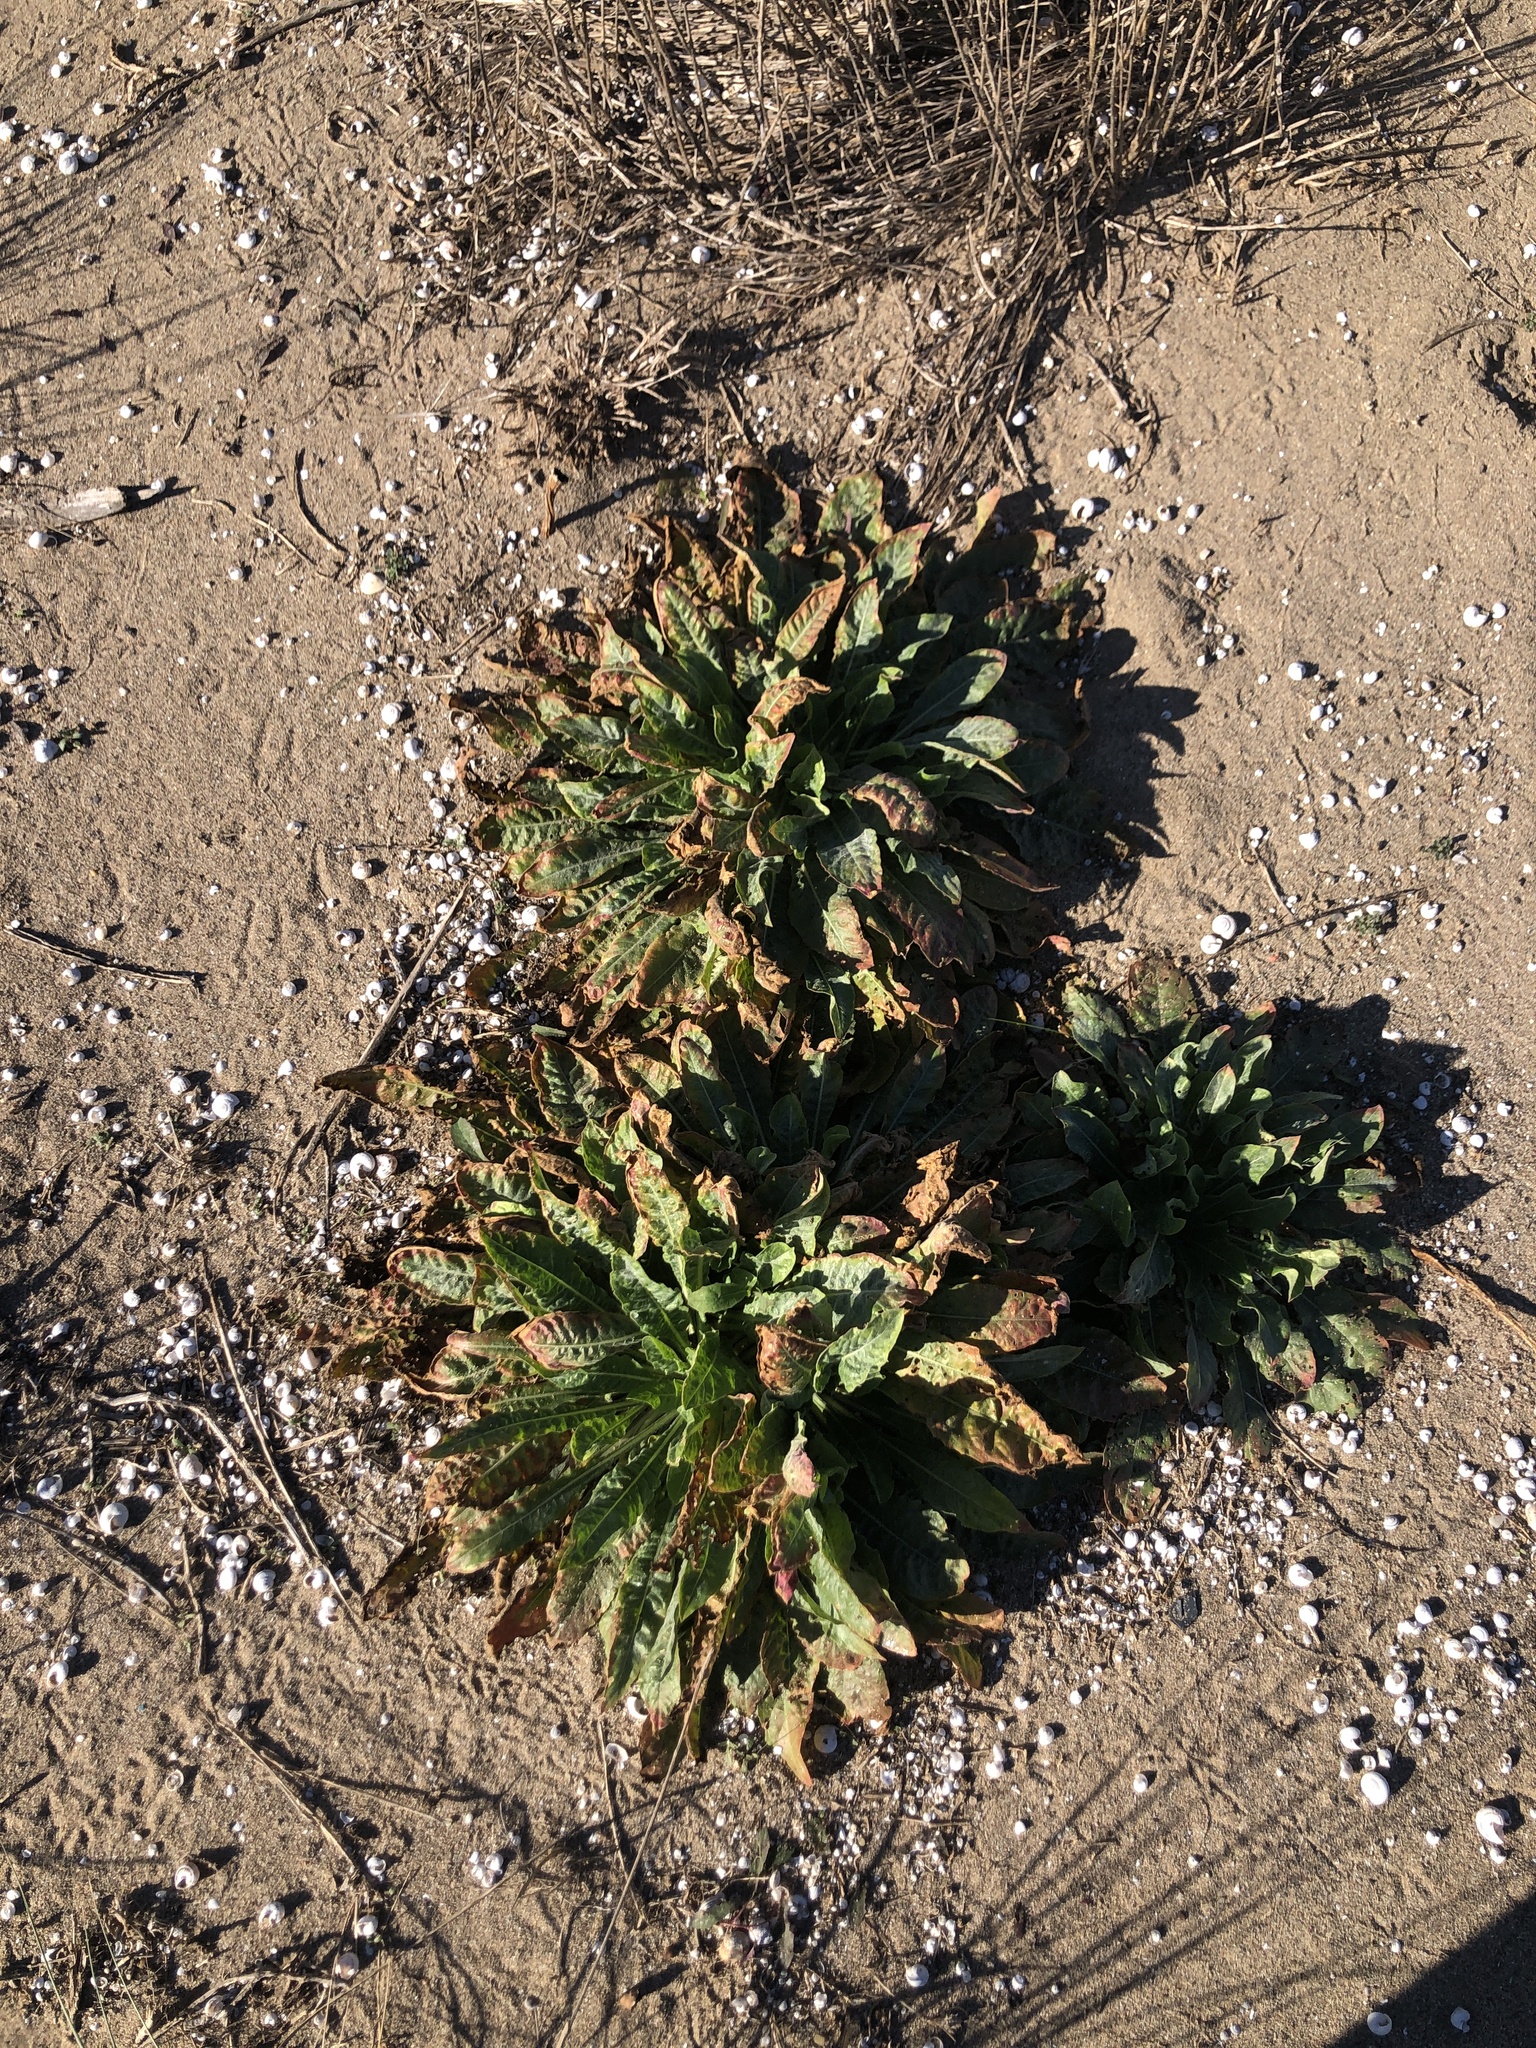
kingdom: Plantae
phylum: Tracheophyta
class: Magnoliopsida
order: Myrtales
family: Onagraceae
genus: Oenothera
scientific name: Oenothera glazioviana
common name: Large-flowered evening-primrose
